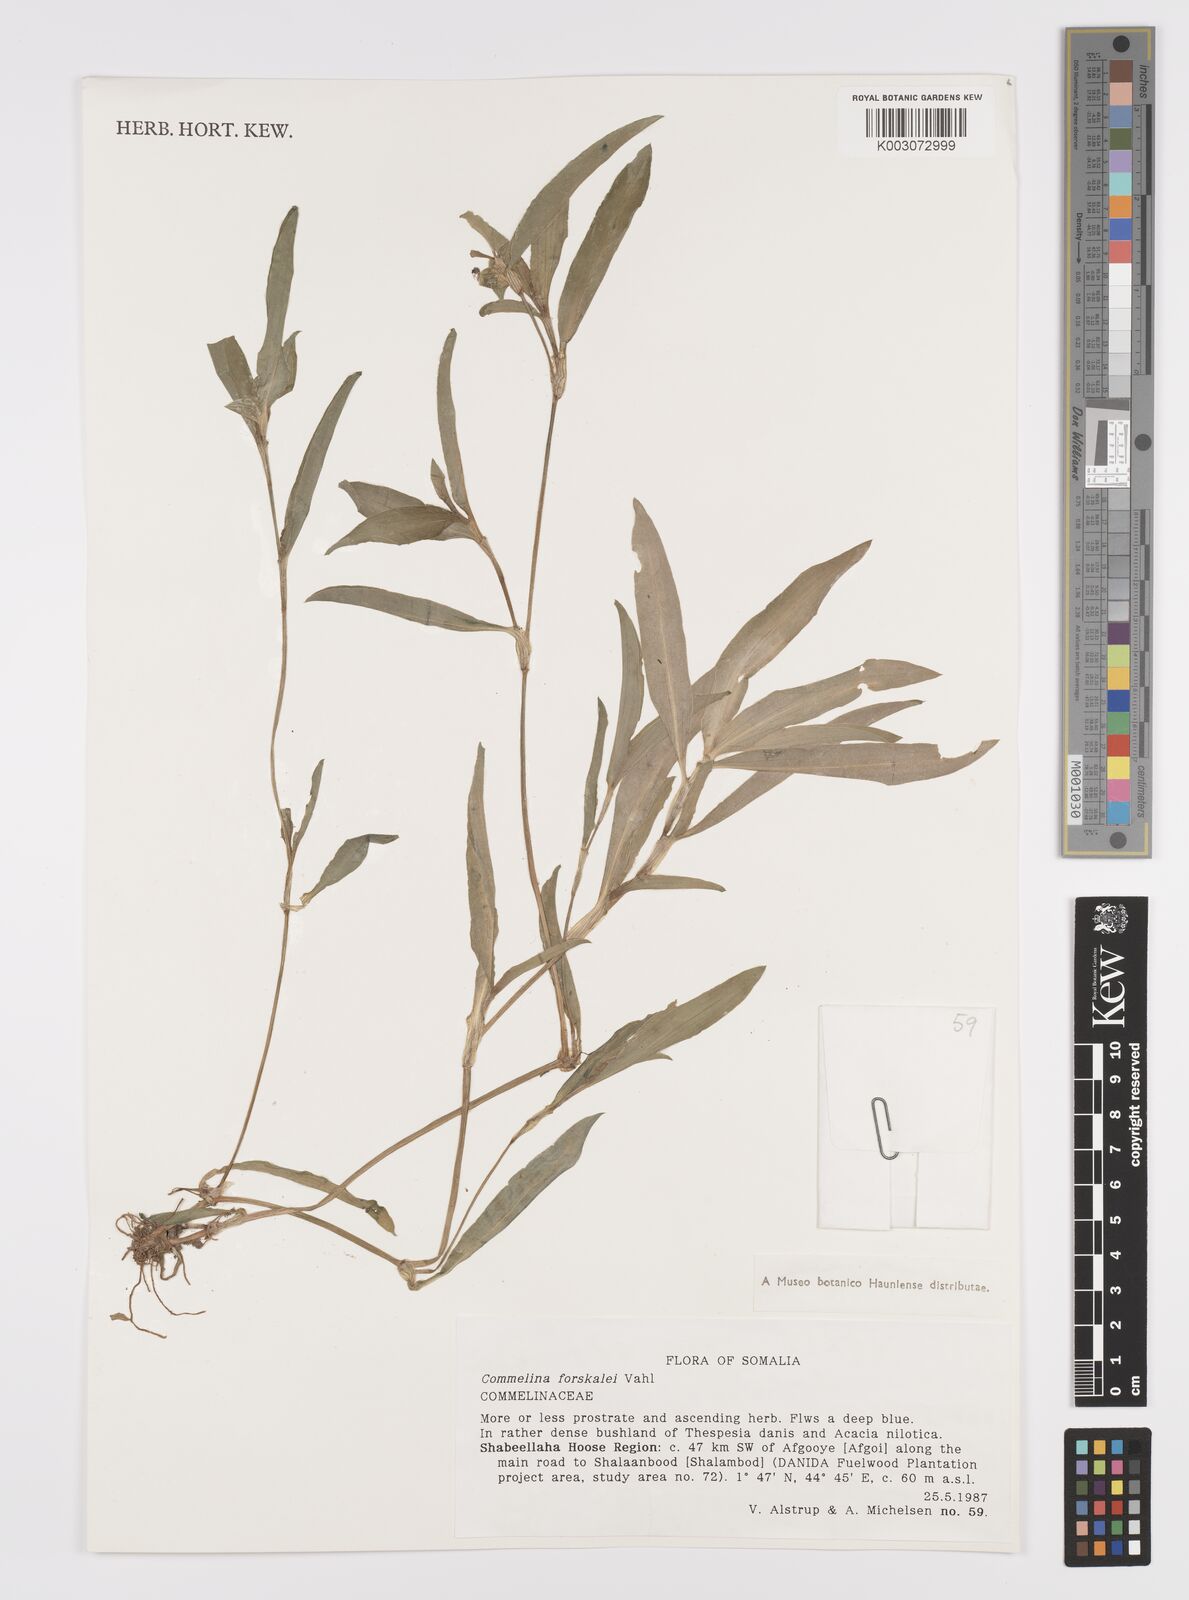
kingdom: Plantae
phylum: Tracheophyta
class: Liliopsida
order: Commelinales
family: Commelinaceae
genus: Commelina
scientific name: Commelina forskaolii
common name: Rat's ear
